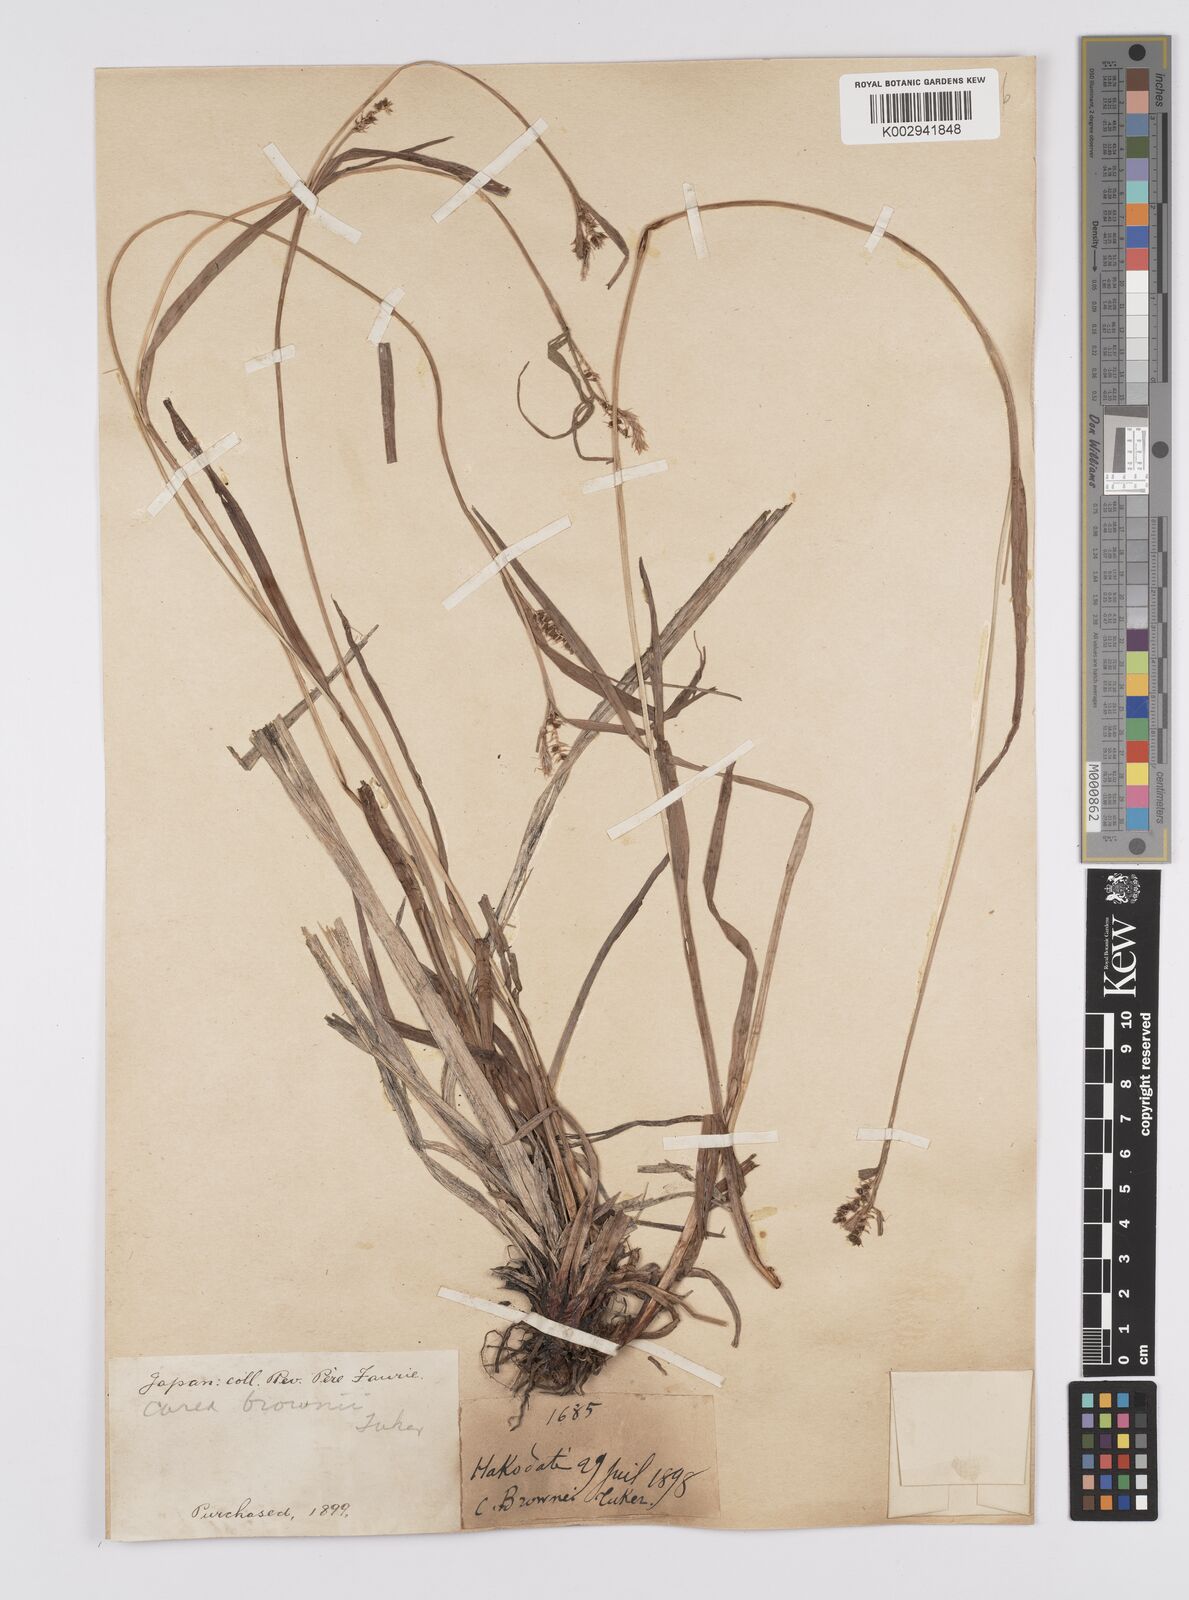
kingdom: Plantae
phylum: Tracheophyta
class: Liliopsida
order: Poales
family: Cyperaceae
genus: Carex
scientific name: Carex brownii
